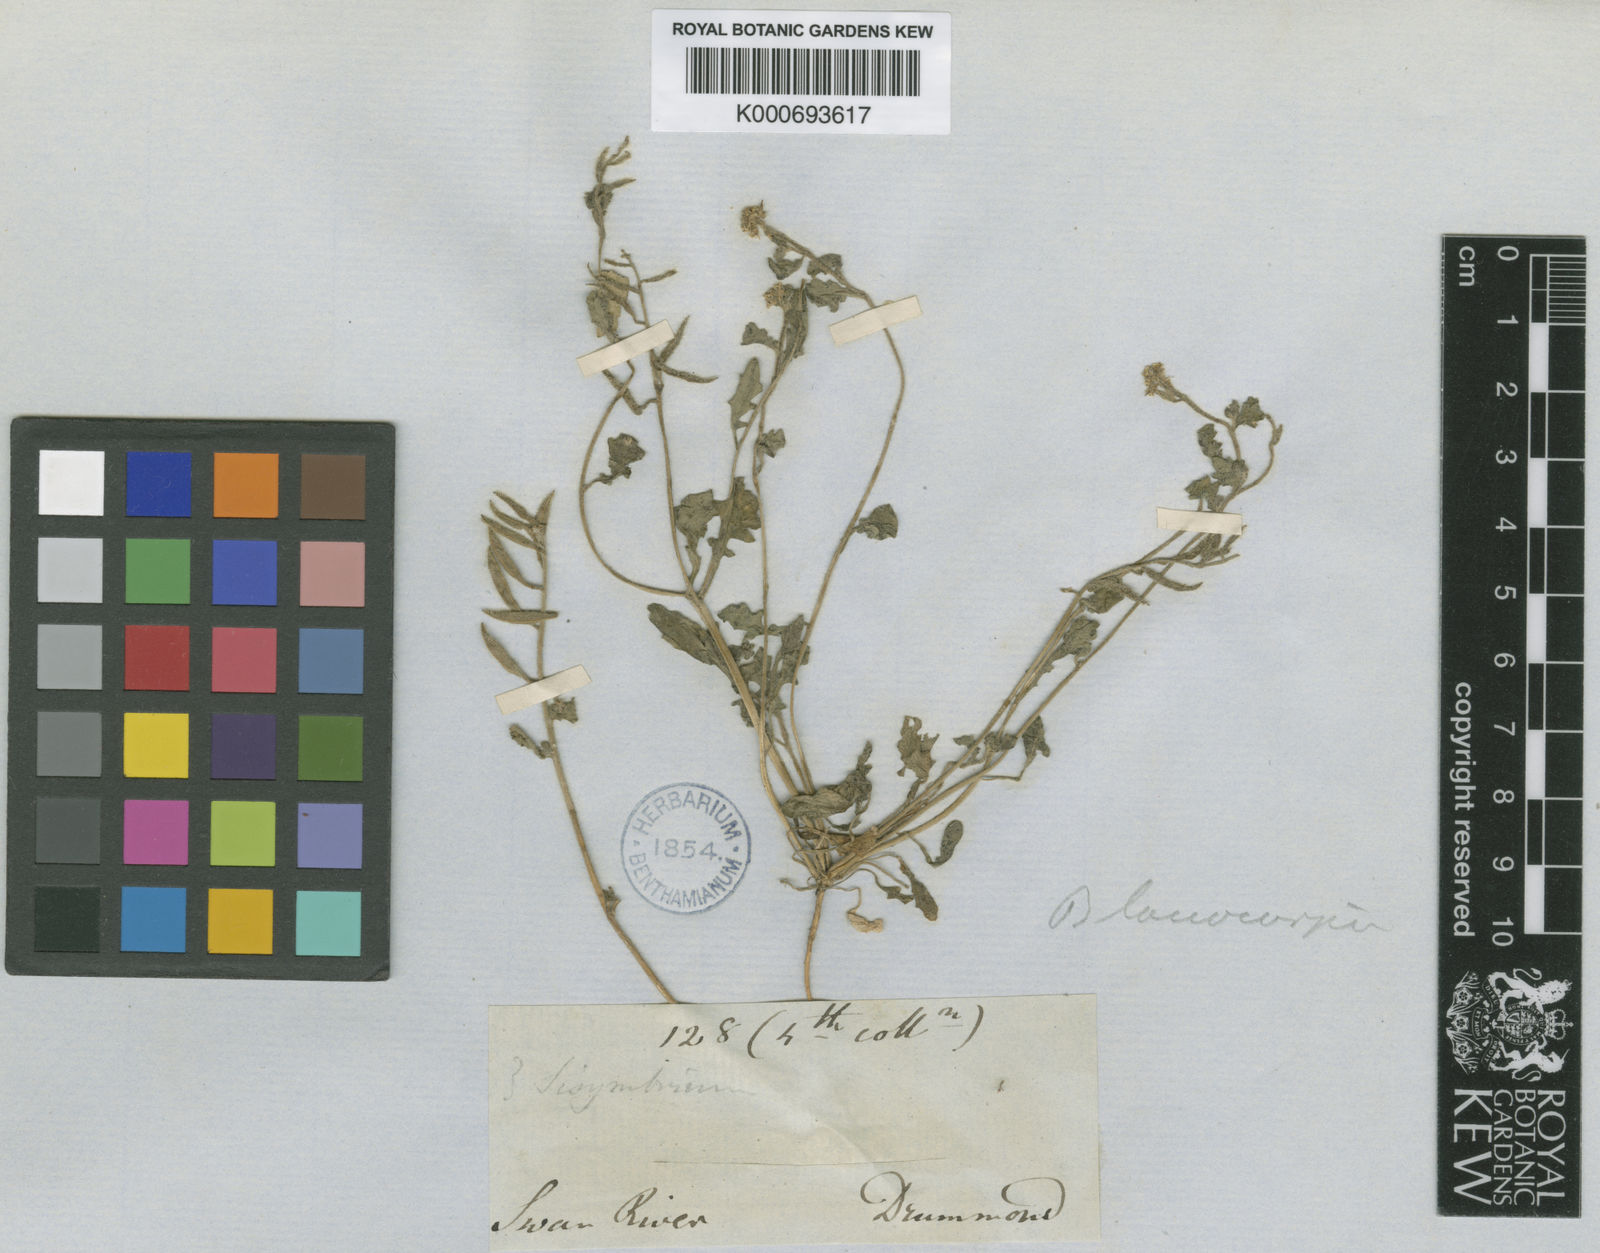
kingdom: Plantae
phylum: Tracheophyta
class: Magnoliopsida
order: Brassicales
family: Brassicaceae
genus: Blennodia
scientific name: Blennodia
